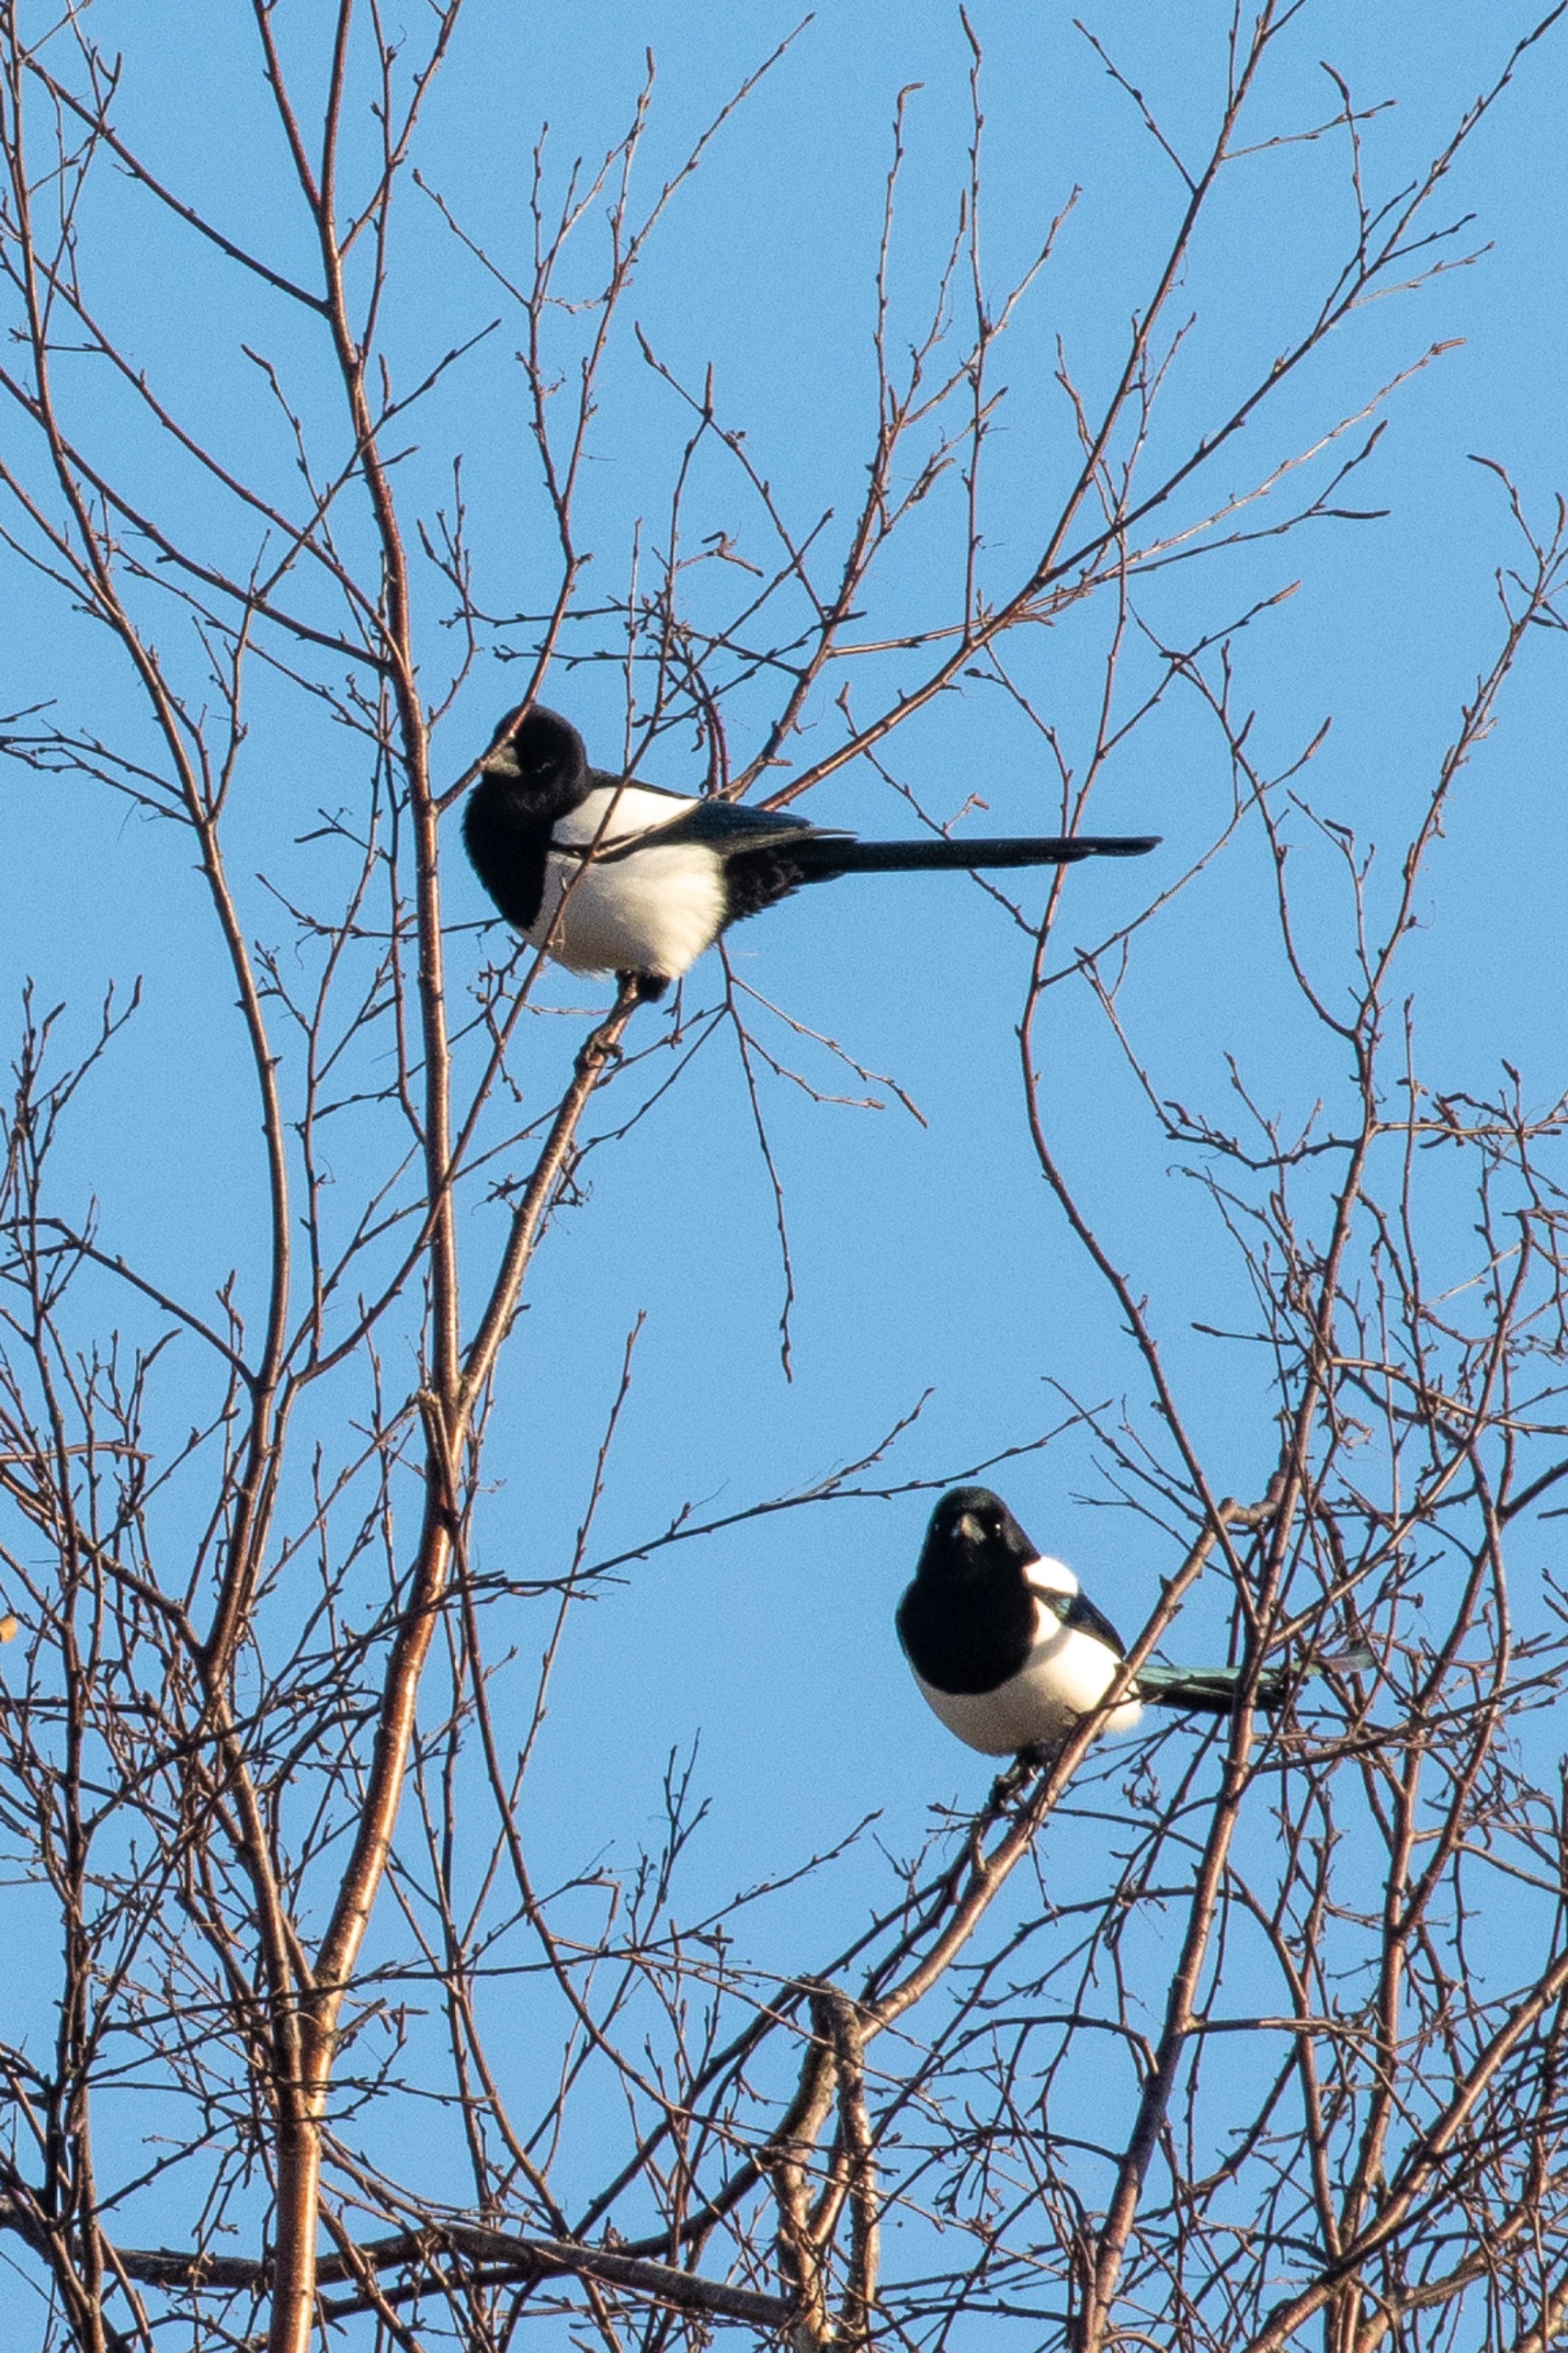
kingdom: Animalia
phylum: Chordata
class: Aves
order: Passeriformes
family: Corvidae
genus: Pica
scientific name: Pica pica
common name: Husskade
